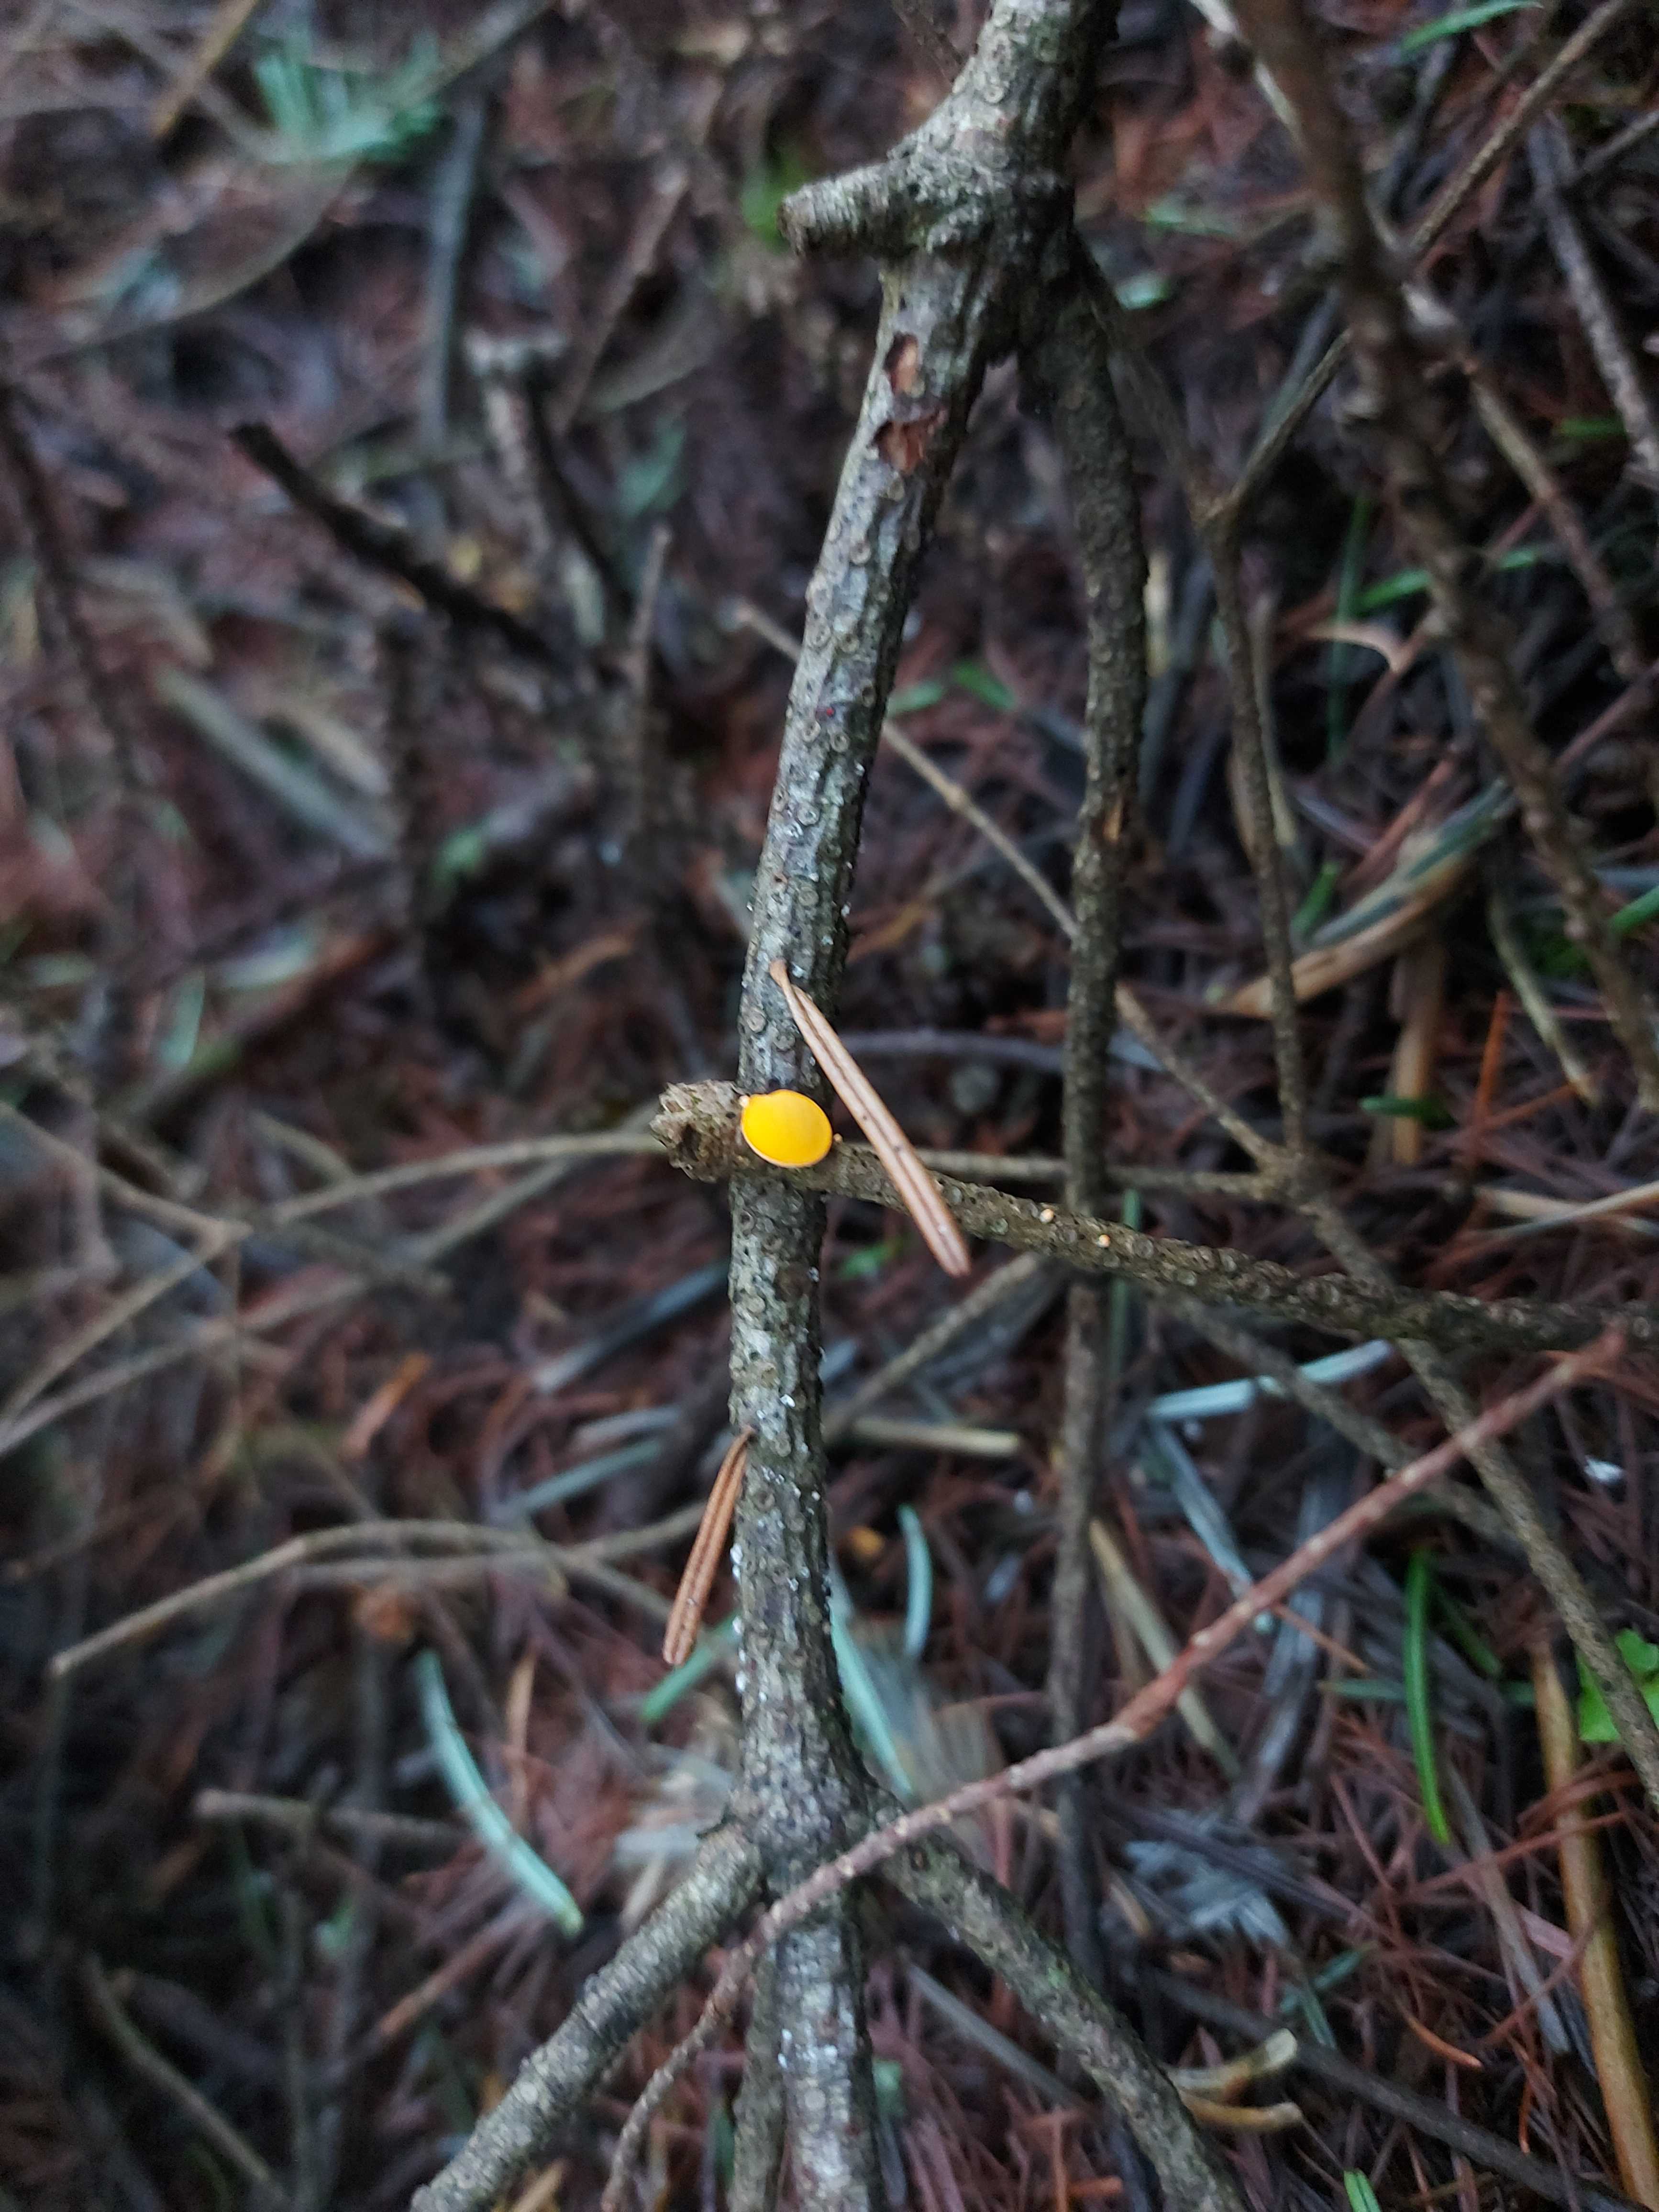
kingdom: Fungi
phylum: Ascomycota
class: Pezizomycetes
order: Pezizales
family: Sarcoscyphaceae
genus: Pithya
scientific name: Pithya vulgaris
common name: stor dukatbæger
